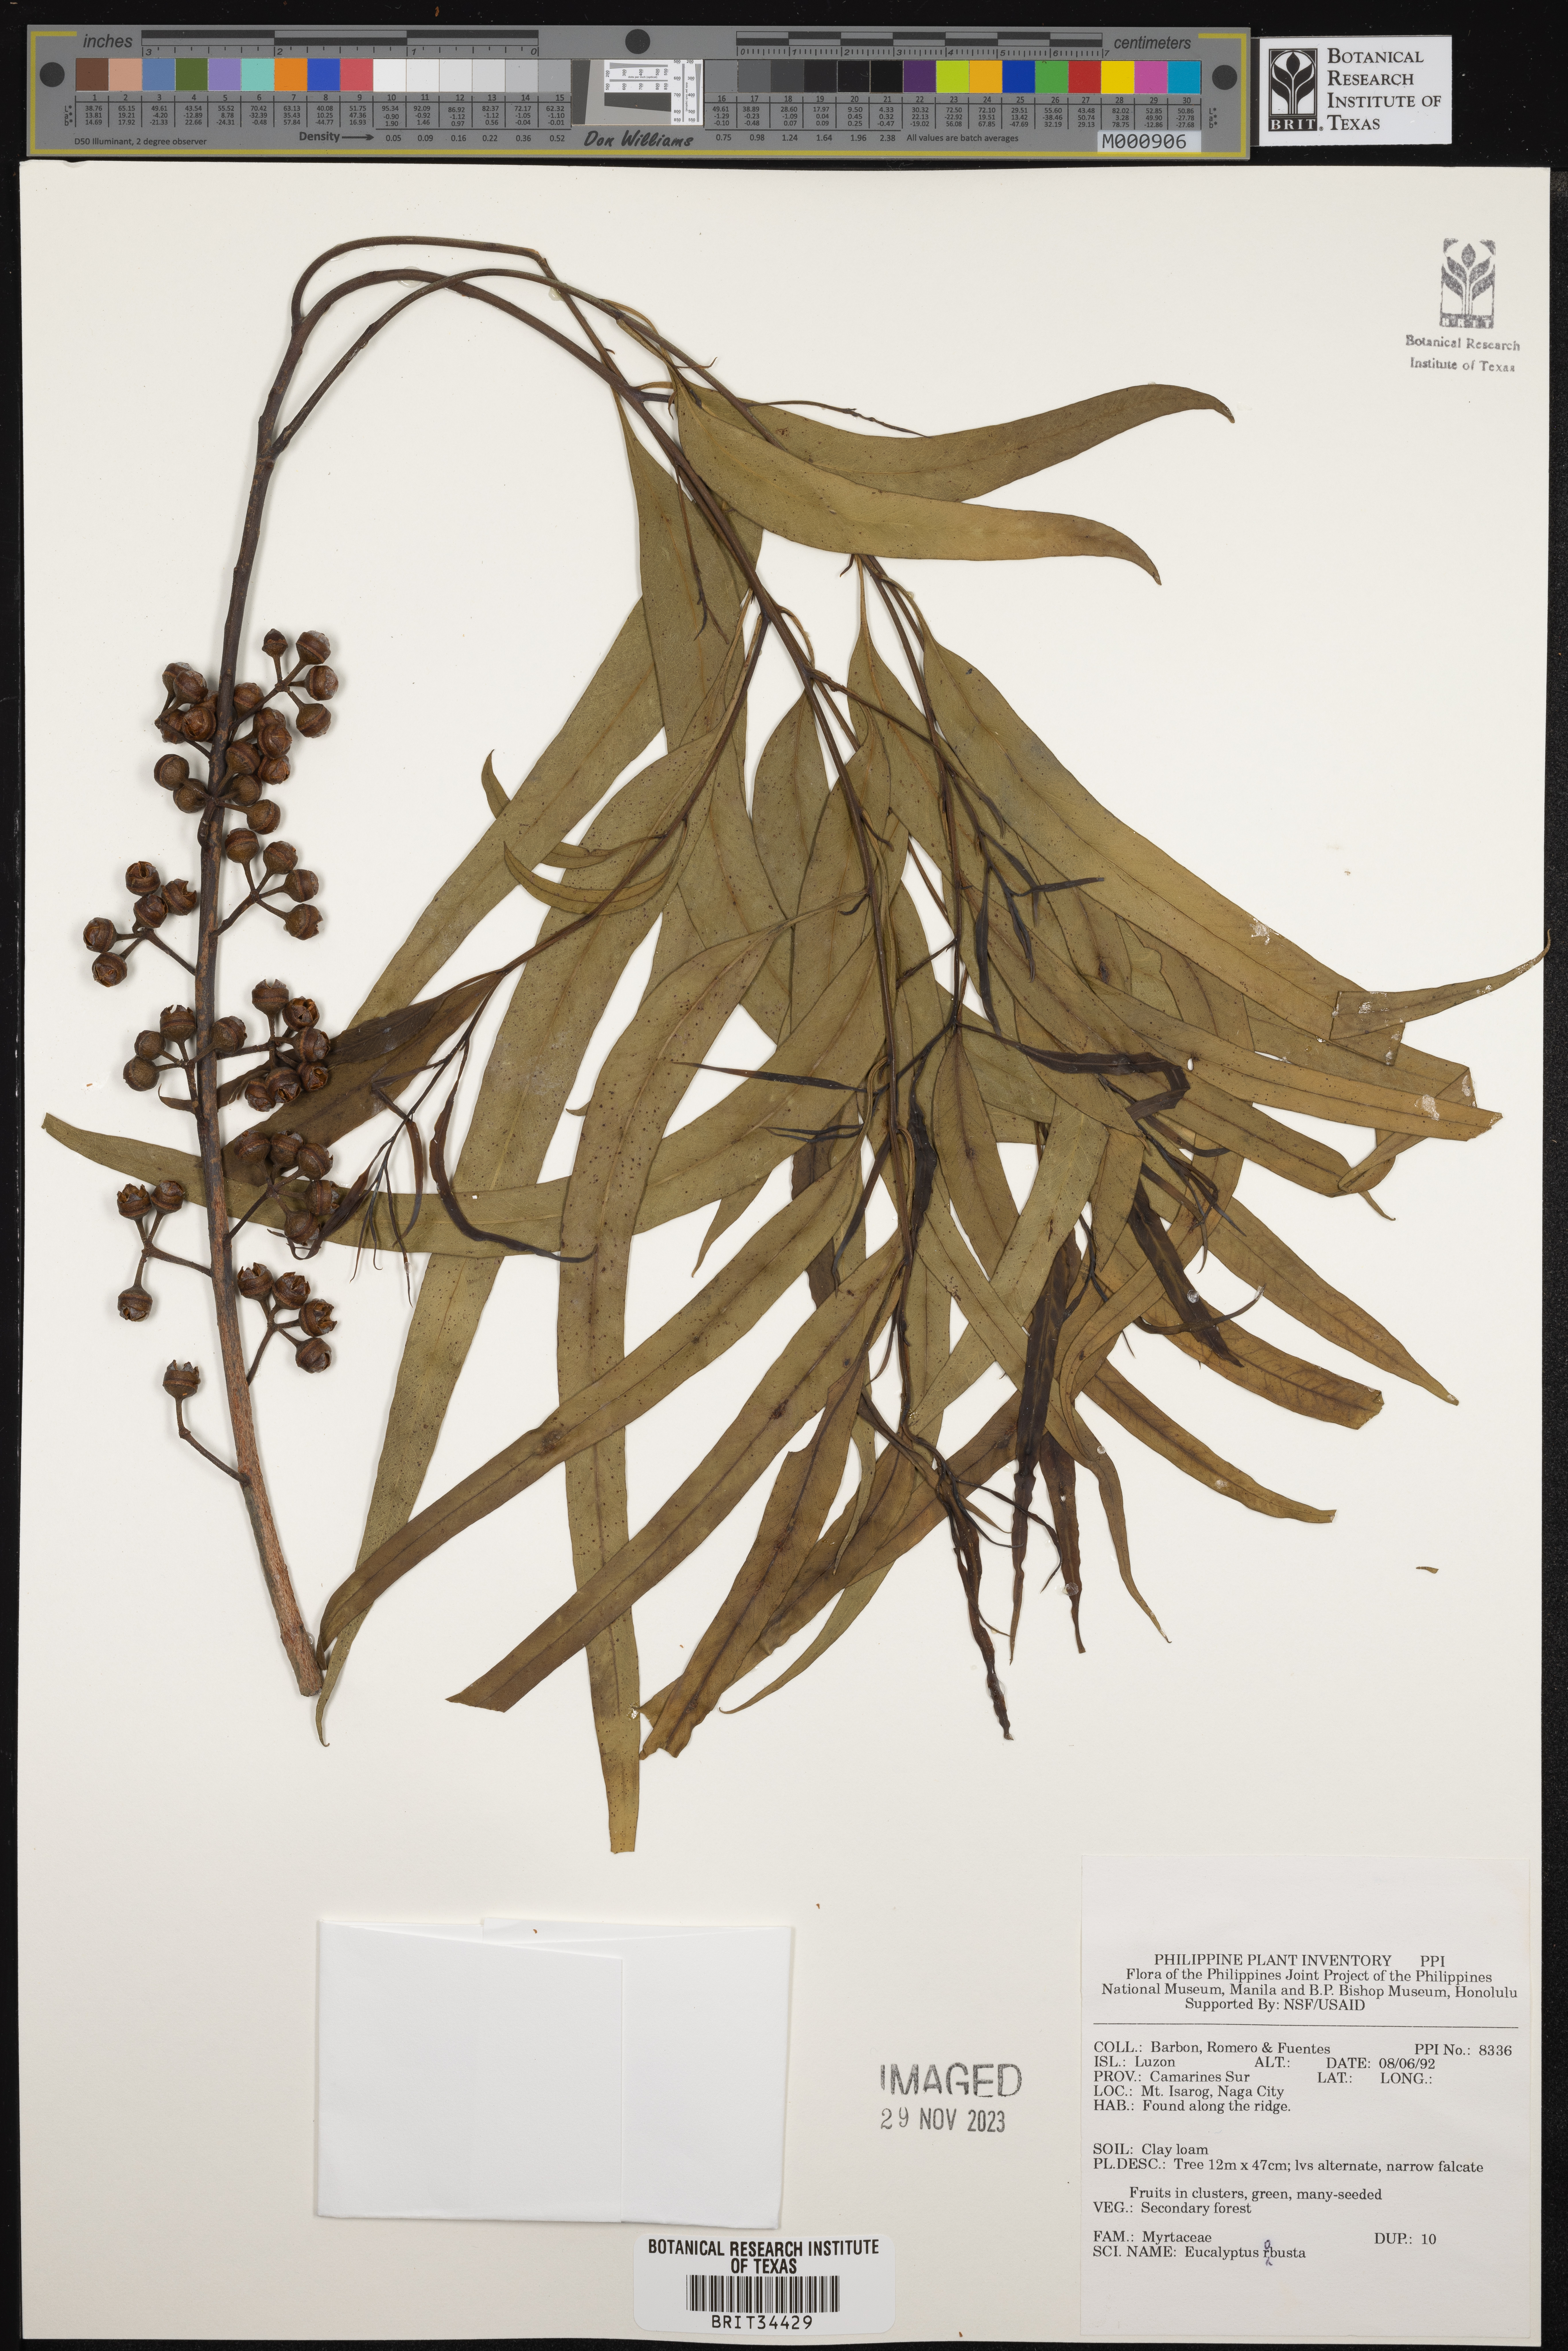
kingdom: Plantae
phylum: Tracheophyta
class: Magnoliopsida
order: Myrtales
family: Myrtaceae
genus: Eucalyptus
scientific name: Eucalyptus robusta
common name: Swampmahogany
